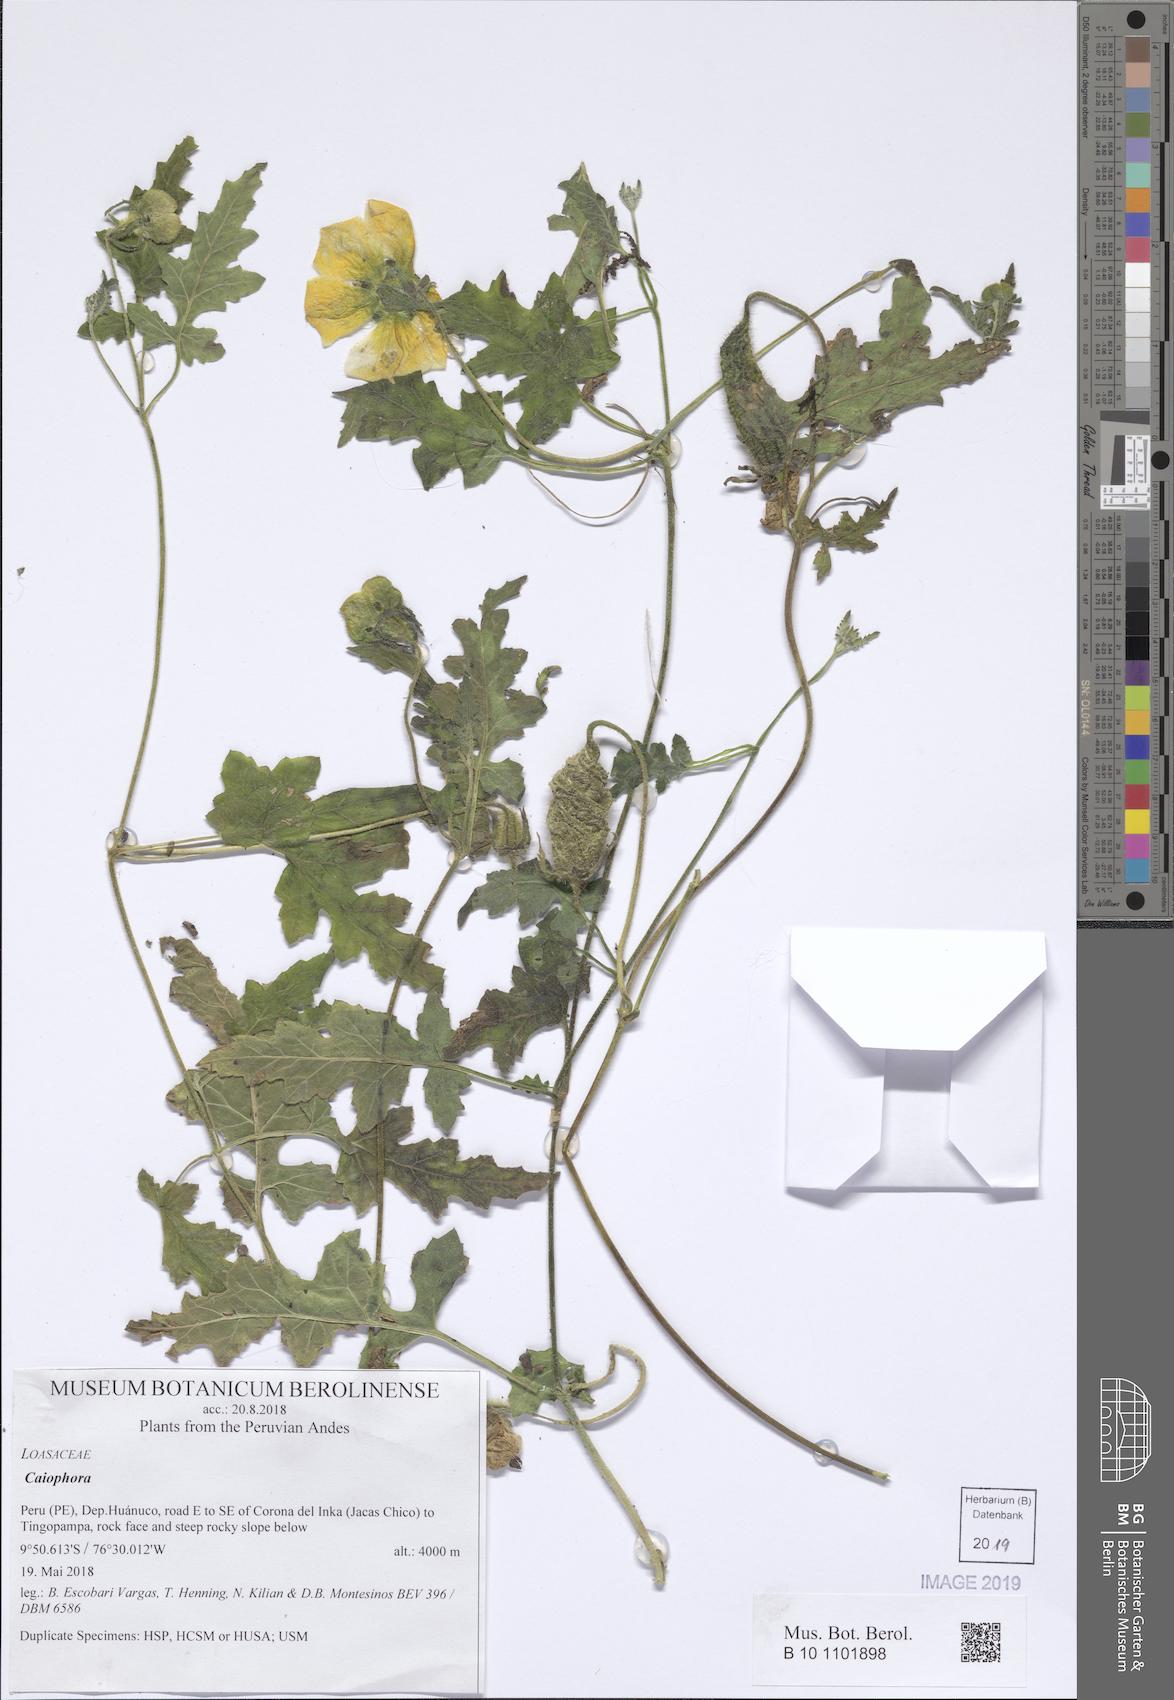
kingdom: Plantae
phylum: Tracheophyta
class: Magnoliopsida
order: Cornales
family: Loasaceae
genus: Caiophora
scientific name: Caiophora cirsiifolia
